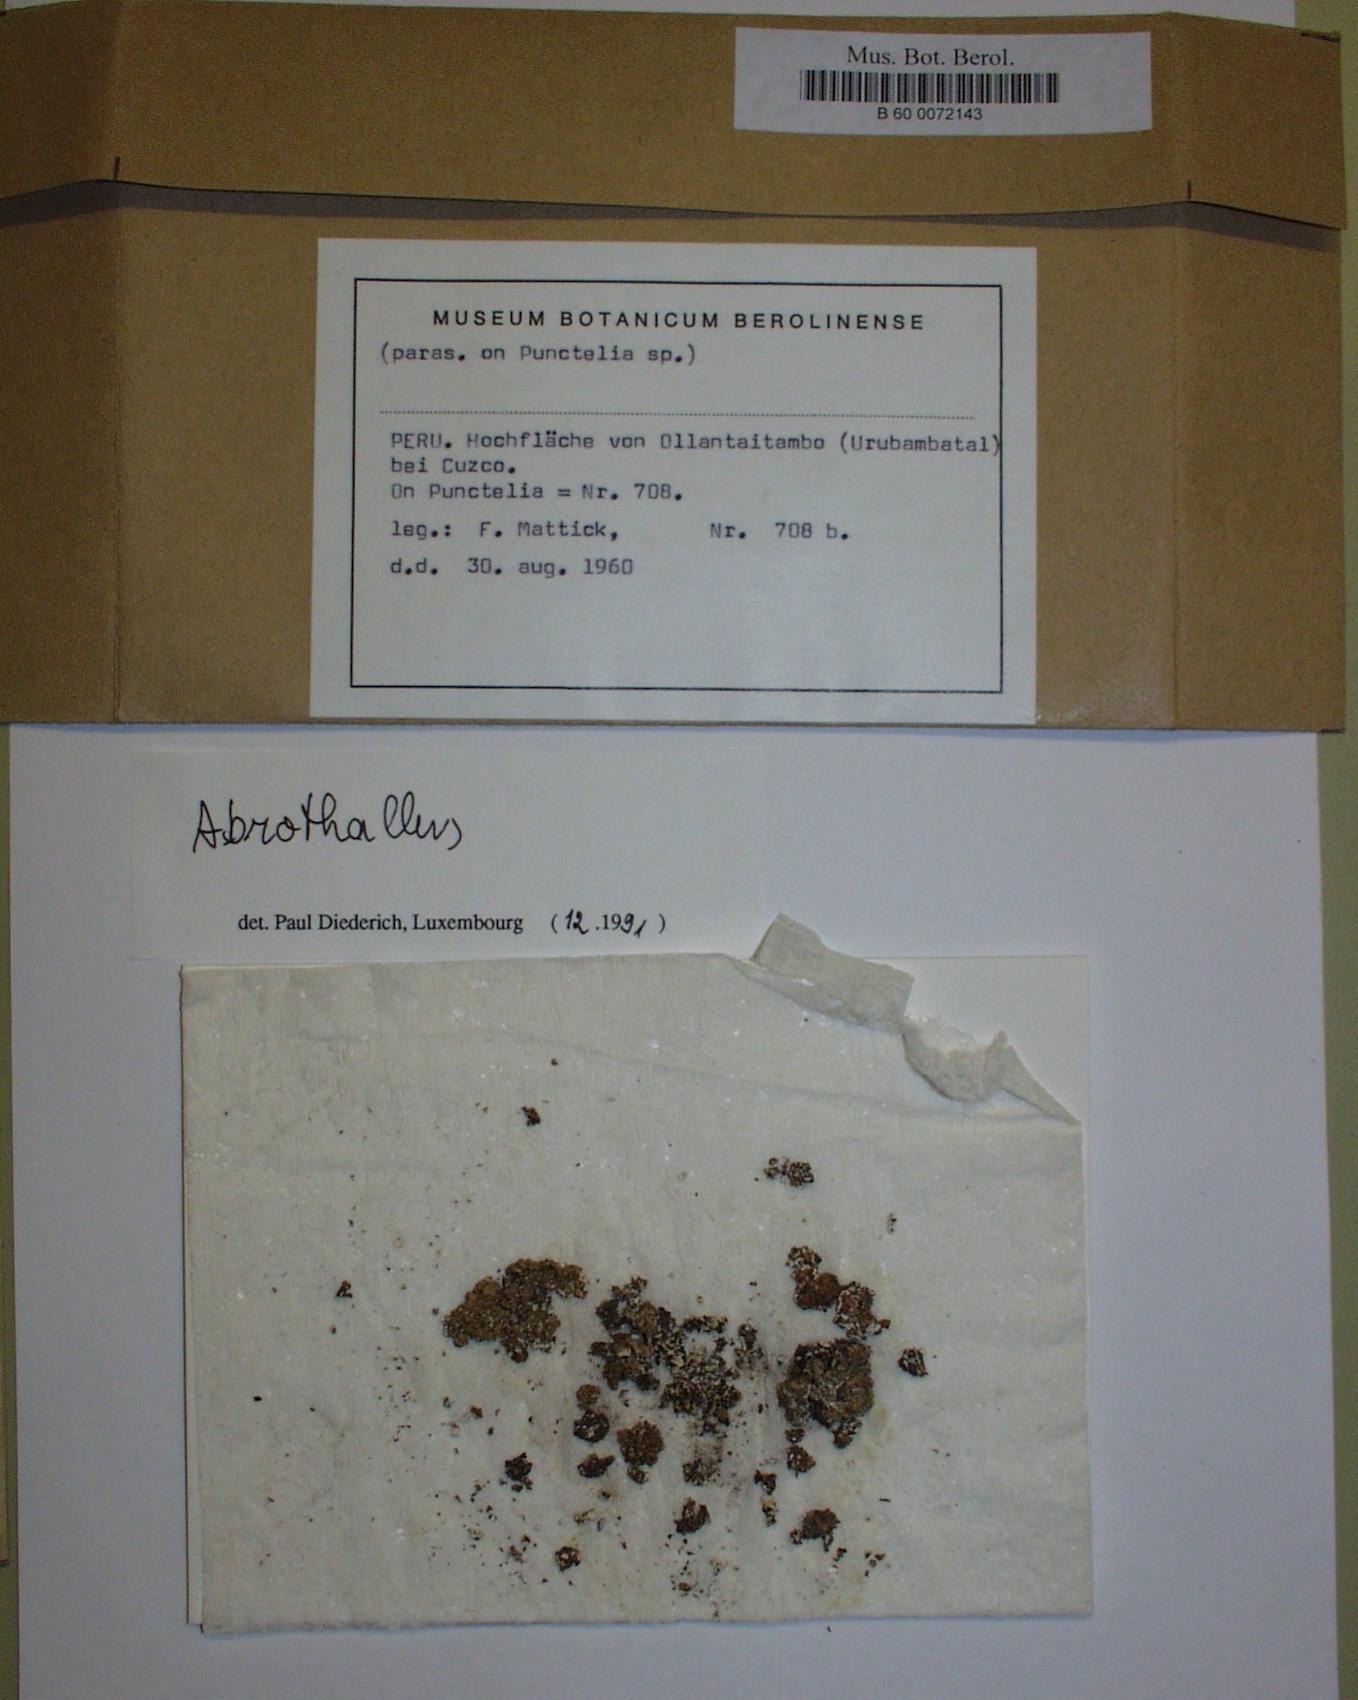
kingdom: Fungi
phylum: Ascomycota
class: Dothideomycetes
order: Pleosporales
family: Dacampiaceae
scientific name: Dacampiaceae
